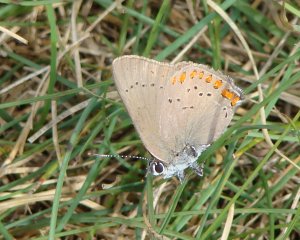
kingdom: Animalia
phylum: Arthropoda
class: Insecta
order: Lepidoptera
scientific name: Lepidoptera
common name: Butterflies
